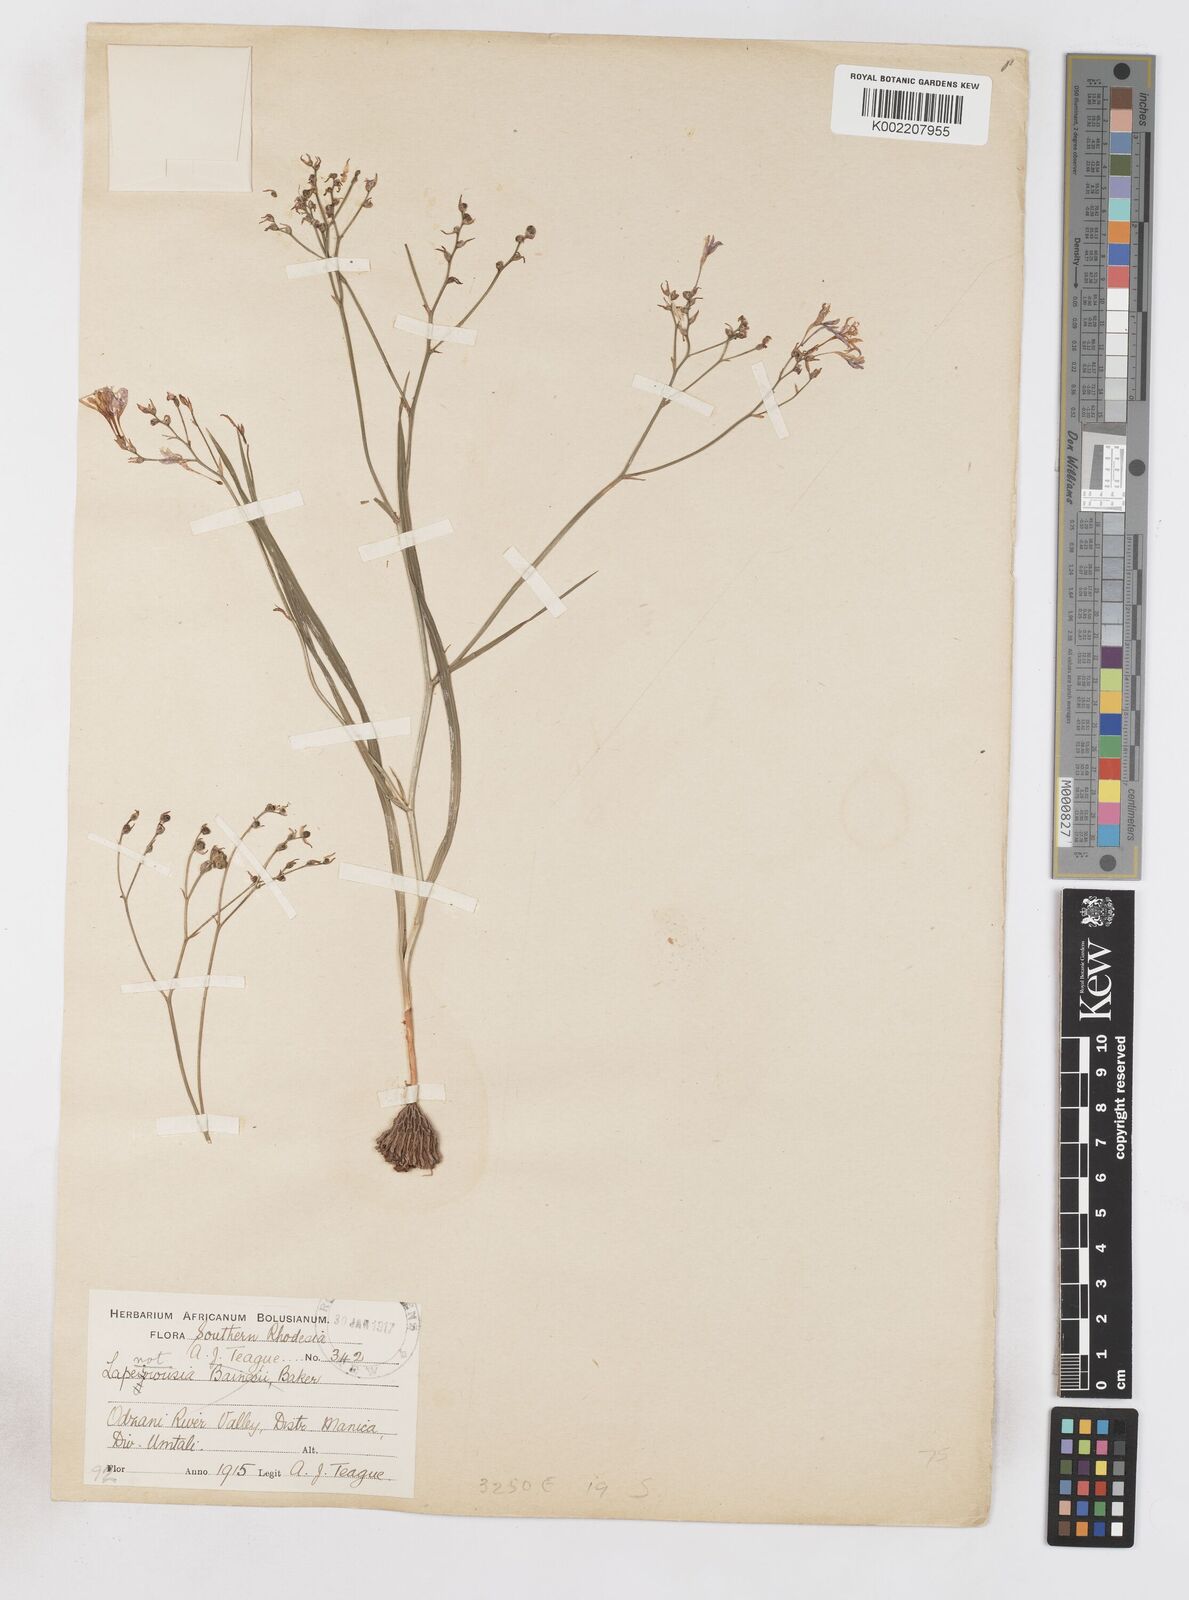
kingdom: Plantae
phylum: Tracheophyta
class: Liliopsida
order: Asparagales
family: Iridaceae
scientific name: Iridaceae
